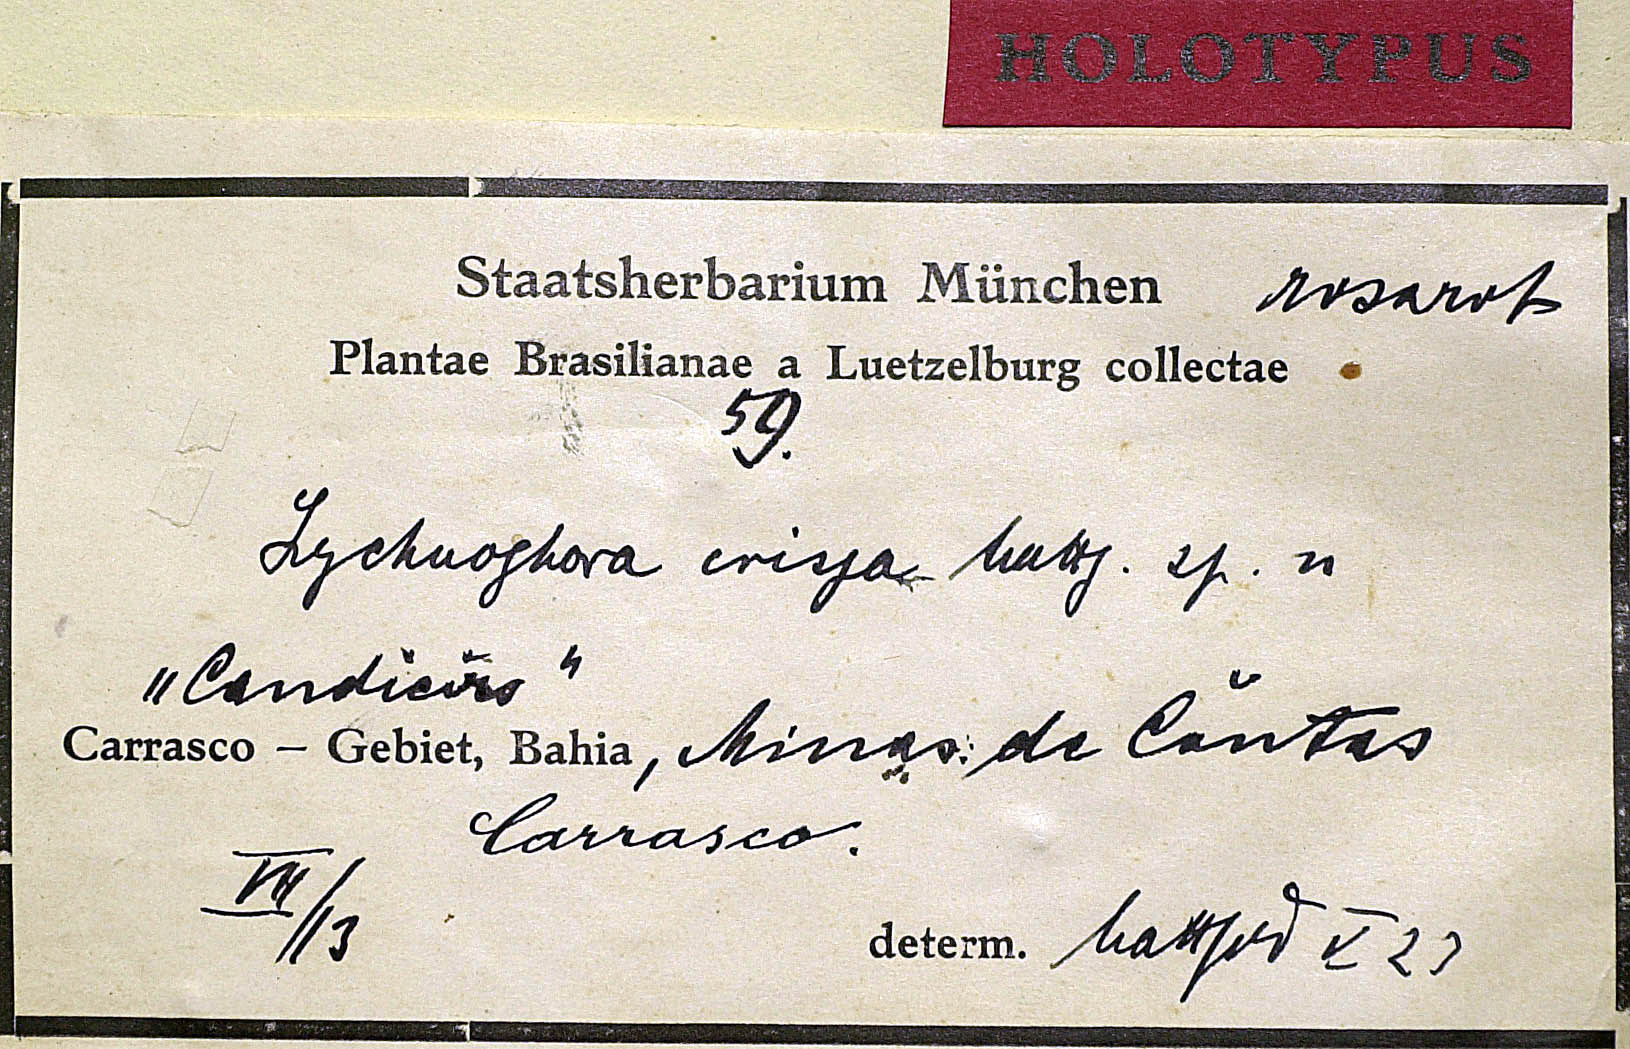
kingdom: Plantae
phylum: Tracheophyta
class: Magnoliopsida
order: Asterales
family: Asteraceae
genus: Lychnophora
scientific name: Lychnophora crispa
